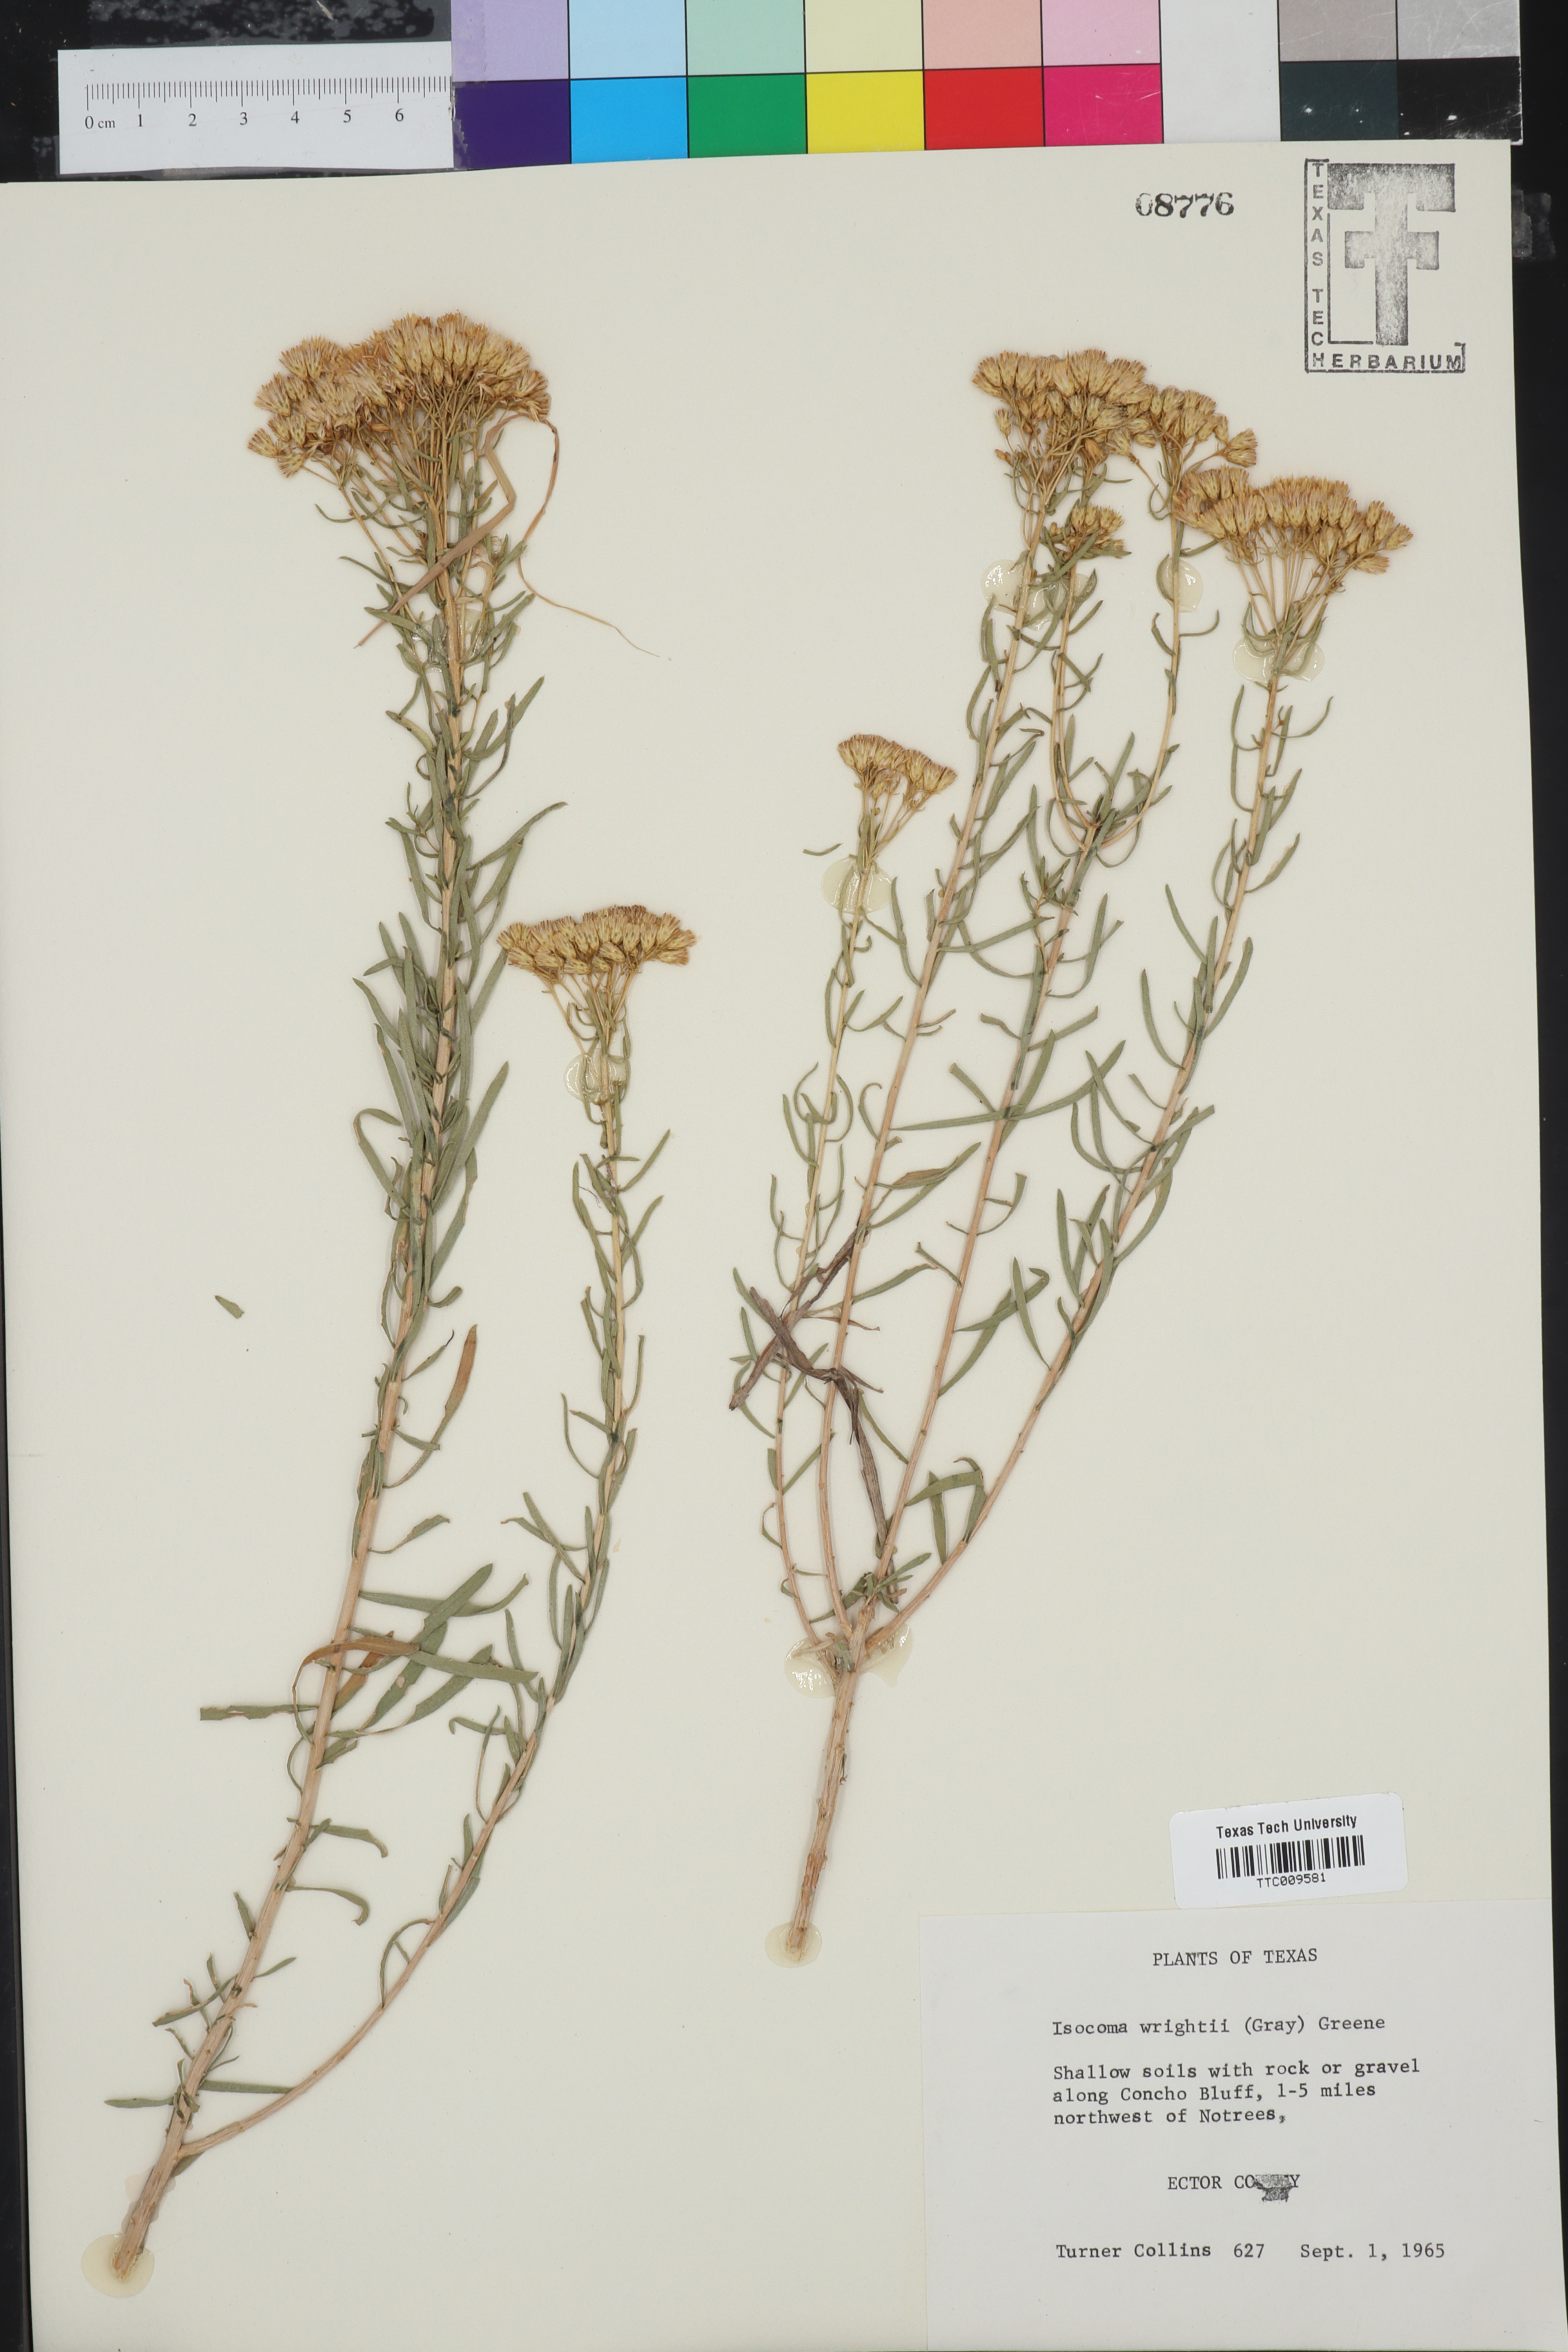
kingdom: Plantae
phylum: Tracheophyta
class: Magnoliopsida
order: Asterales
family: Asteraceae
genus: Isocoma
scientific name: Isocoma pluriflora
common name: Southern jimmyweed
